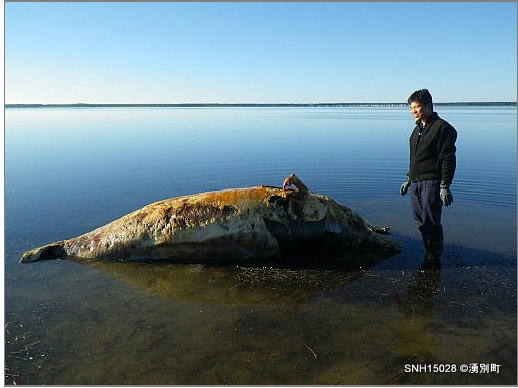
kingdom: Animalia
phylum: Chordata
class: Mammalia
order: Cetacea
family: Balaenopteridae
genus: Balaenoptera
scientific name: Balaenoptera acutorostrata
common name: Minke whale
